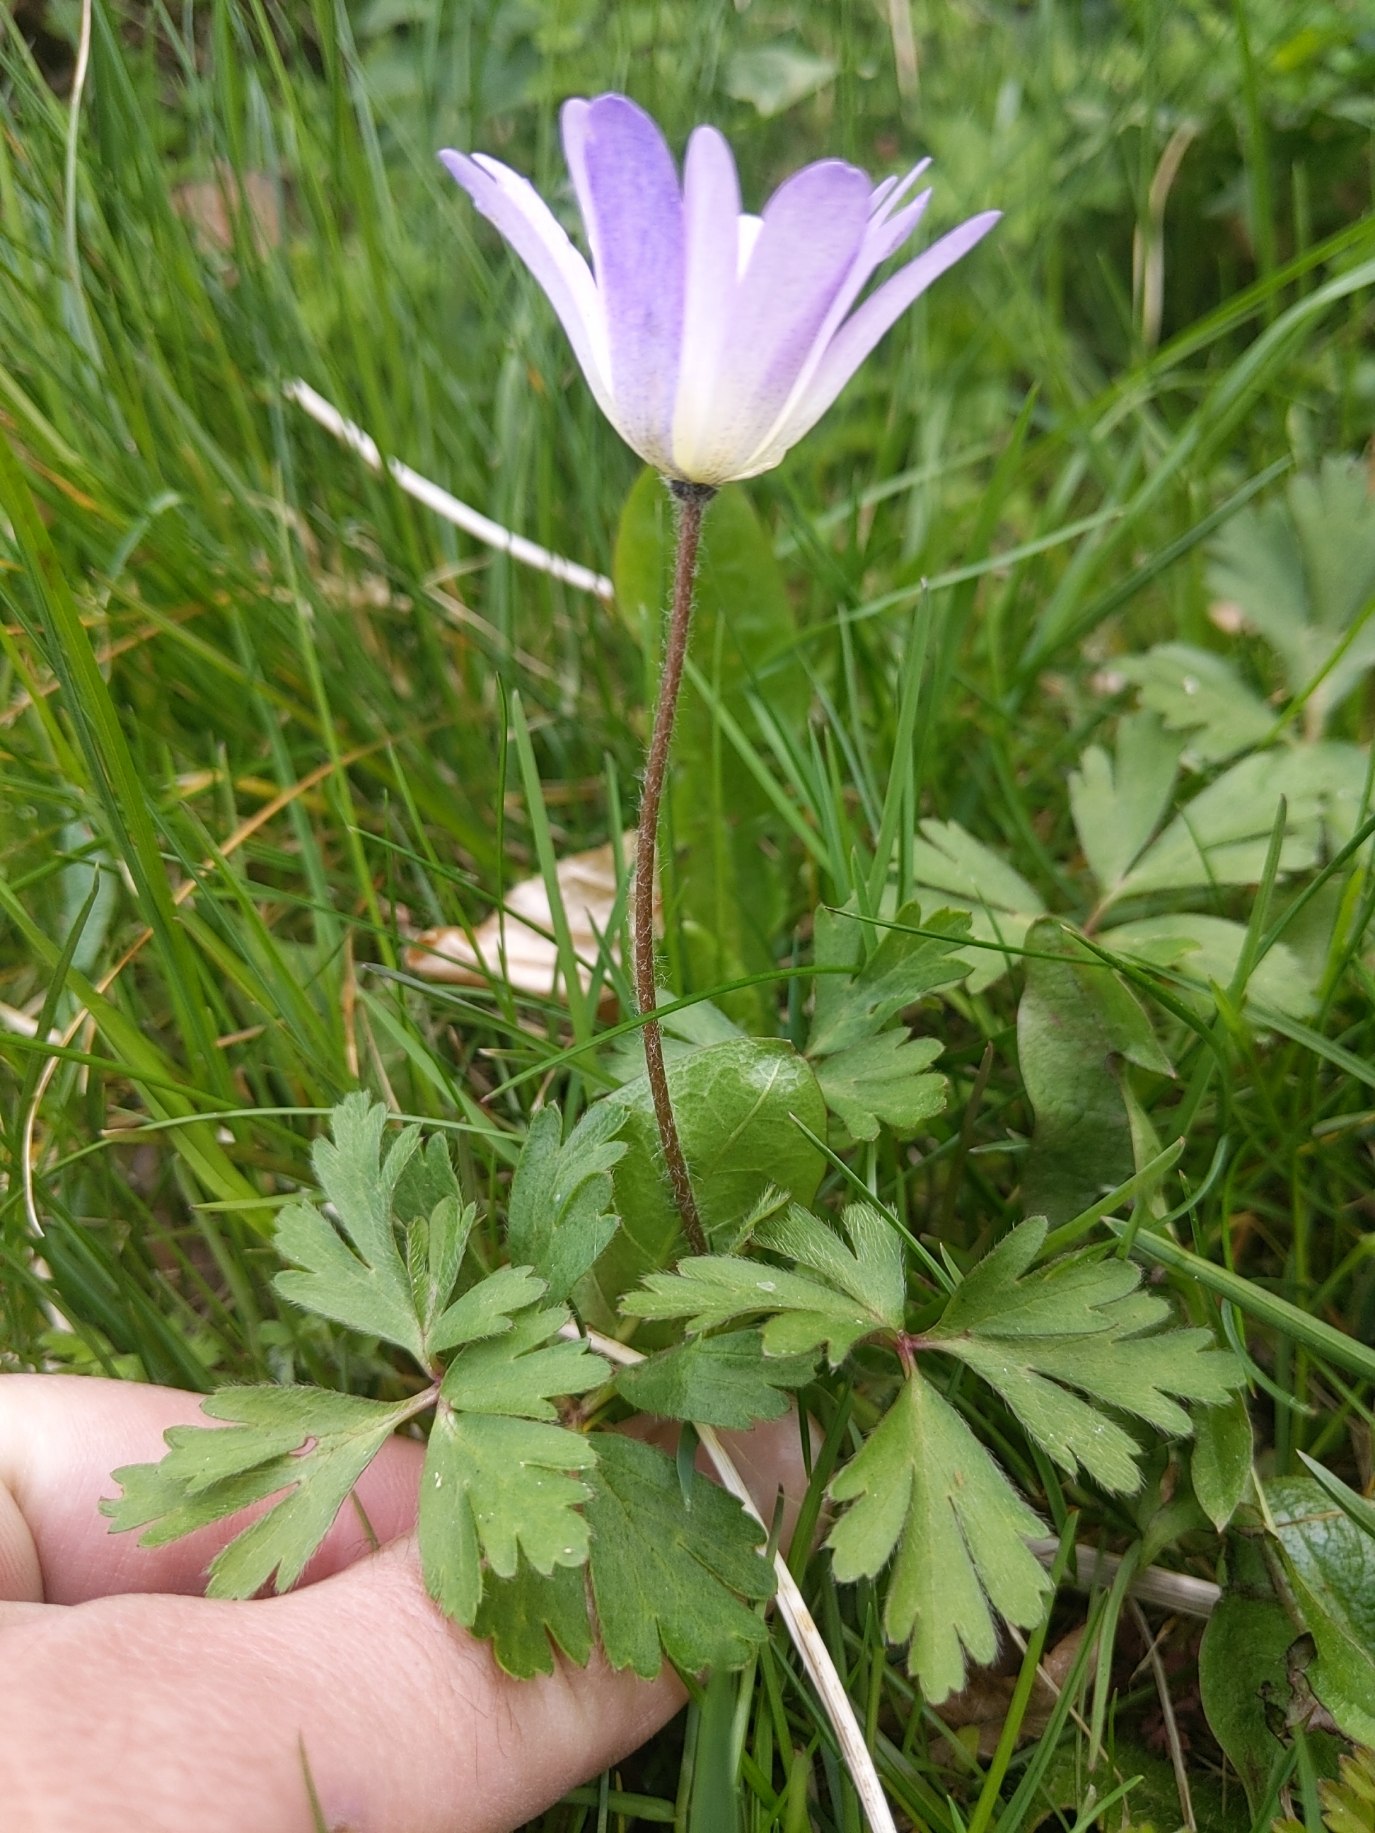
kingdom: Plantae
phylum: Tracheophyta
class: Magnoliopsida
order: Ranunculales
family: Ranunculaceae
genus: Anemone
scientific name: Anemone blanda
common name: Balkan-anemone
